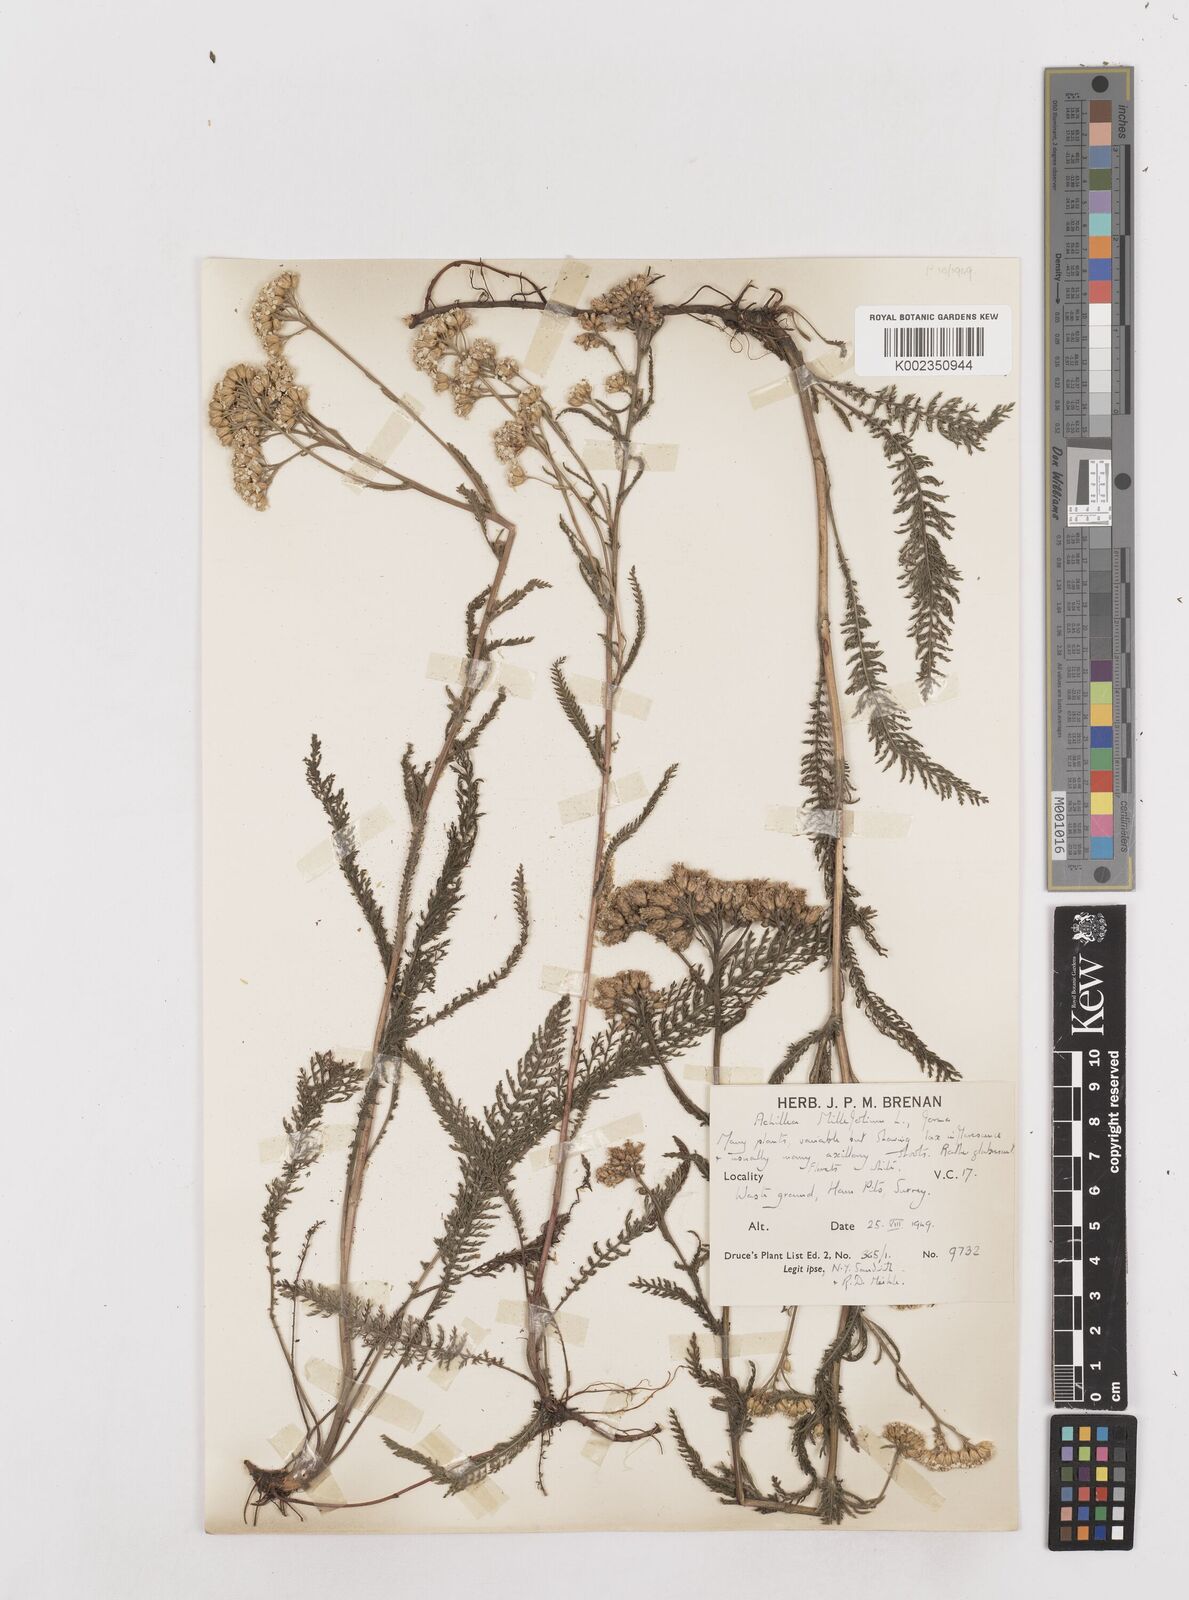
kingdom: Plantae
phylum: Tracheophyta
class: Magnoliopsida
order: Asterales
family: Asteraceae
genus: Achillea
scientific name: Achillea millefolium
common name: Yarrow
